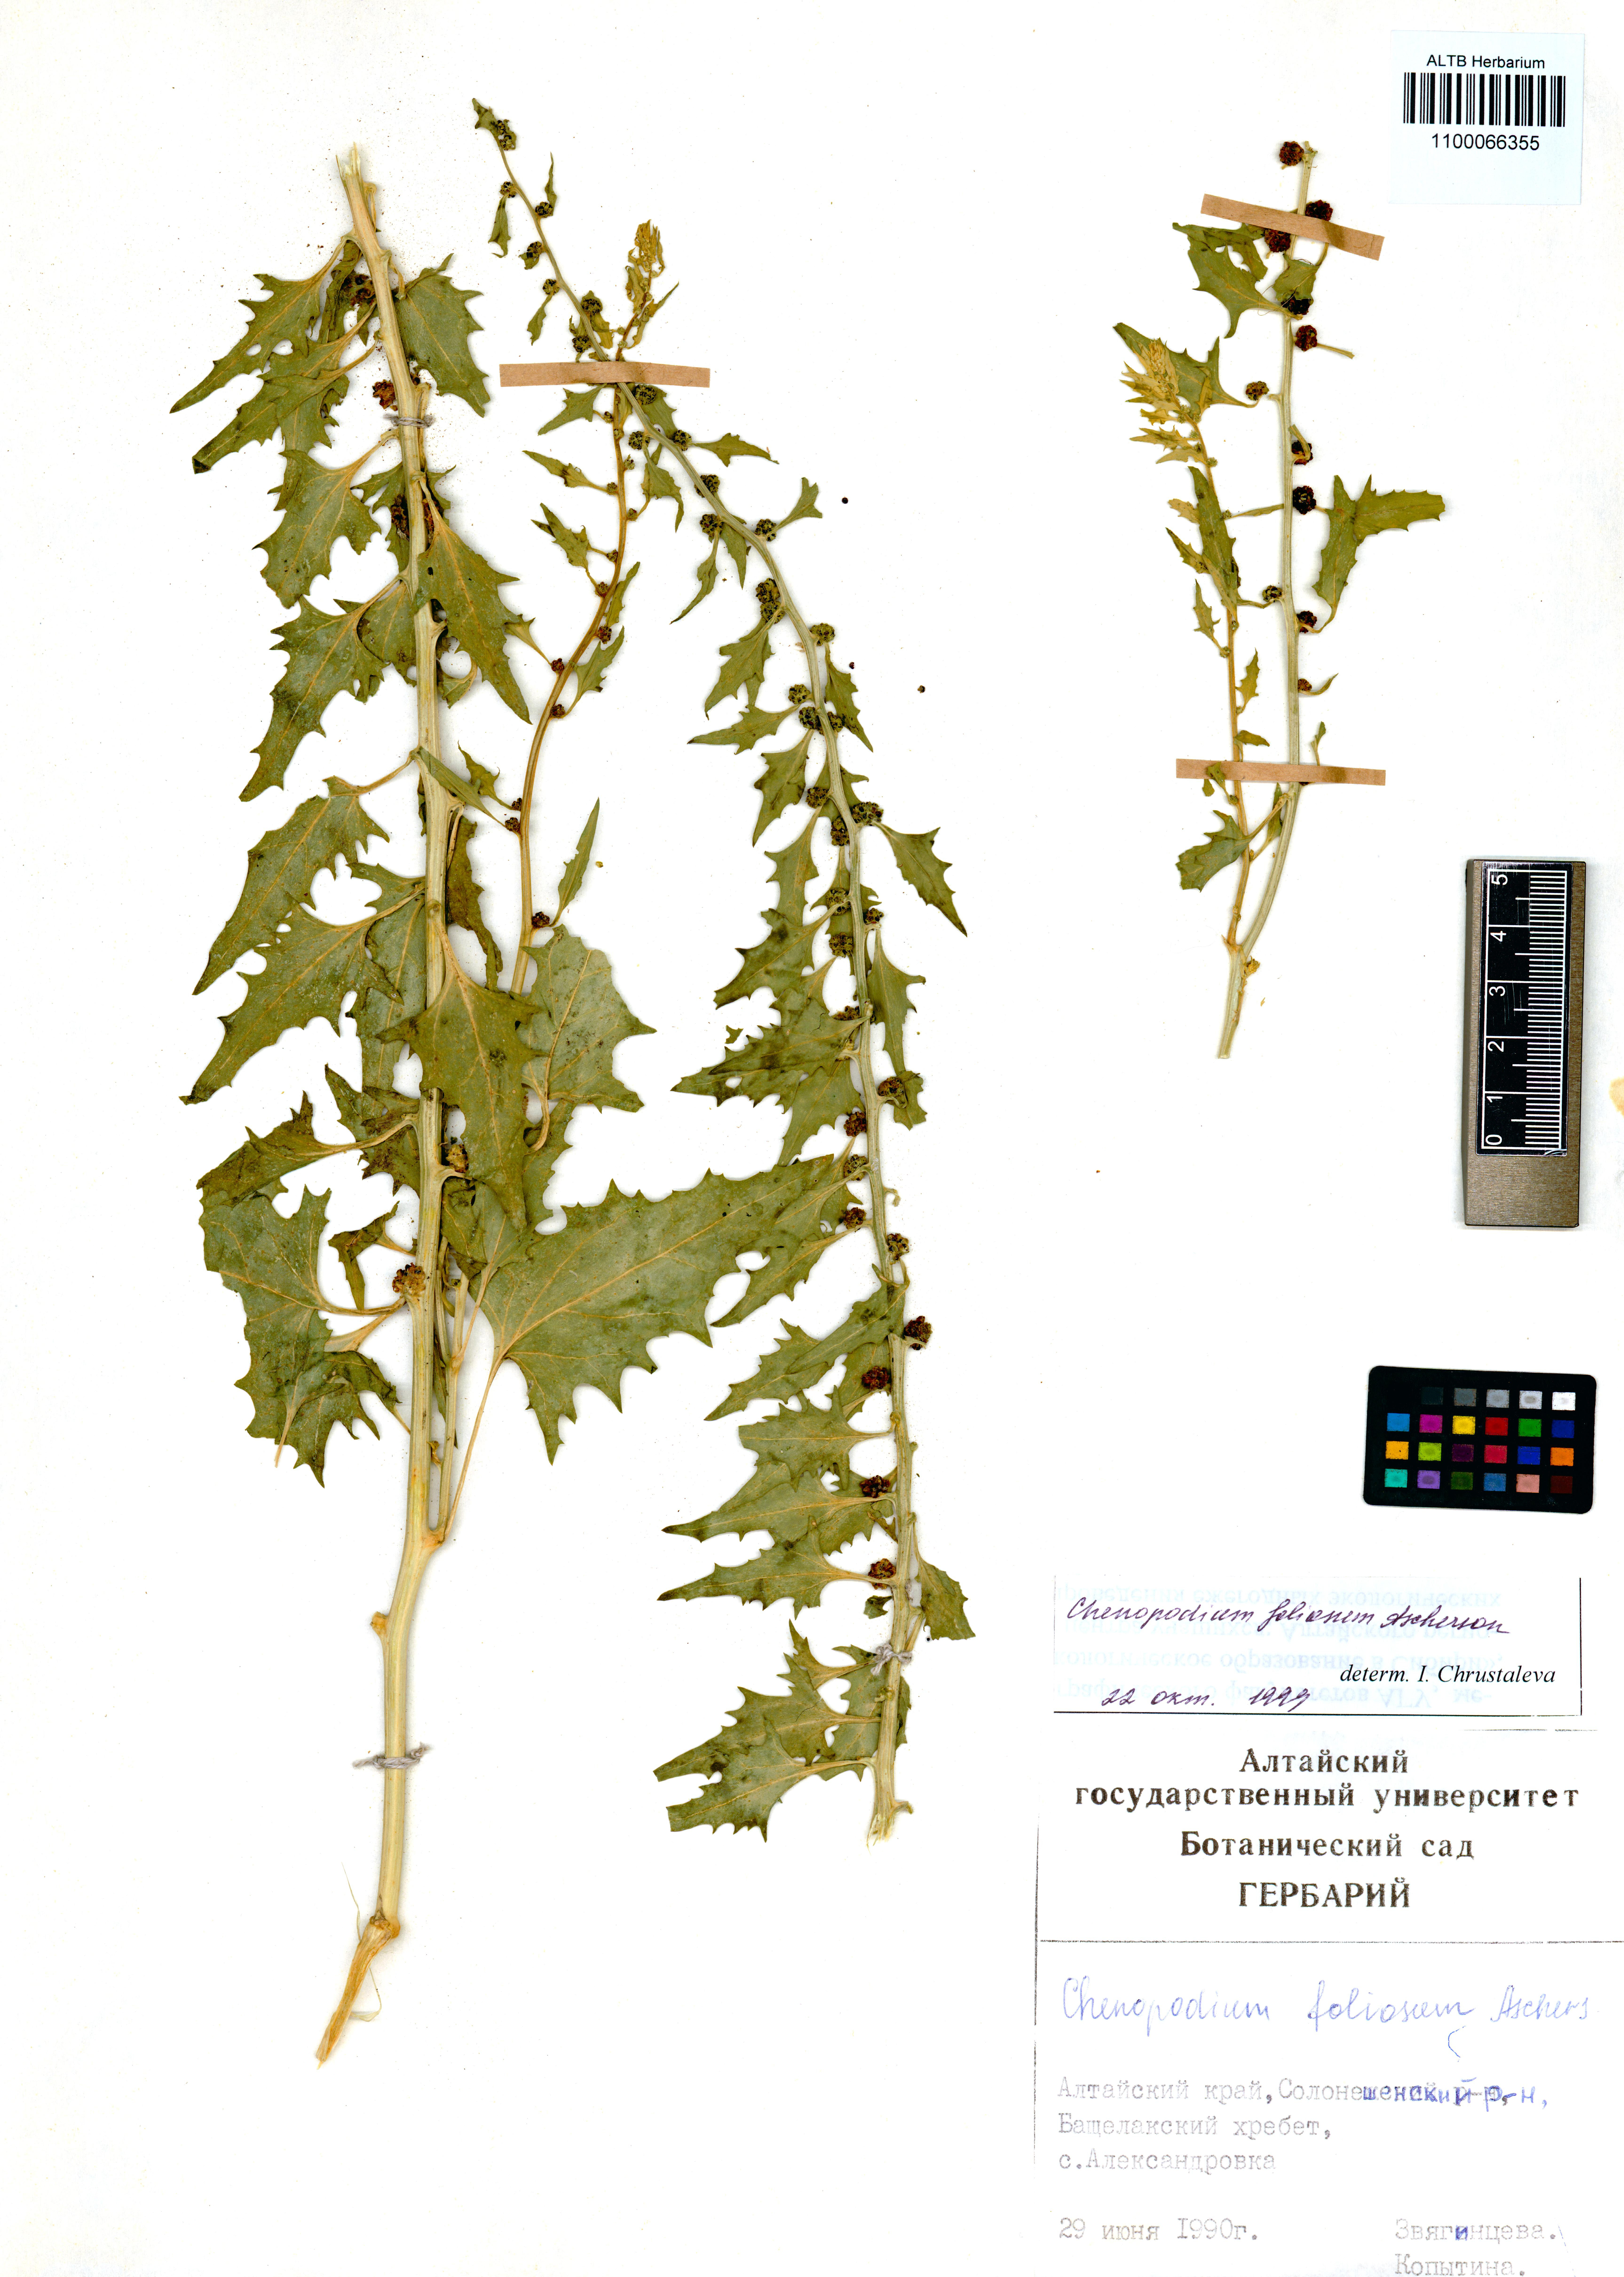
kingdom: Plantae
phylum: Tracheophyta
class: Magnoliopsida
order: Caryophyllales
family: Amaranthaceae
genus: Blitum
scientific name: Blitum virgatum
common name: Strawberry goosefoot
